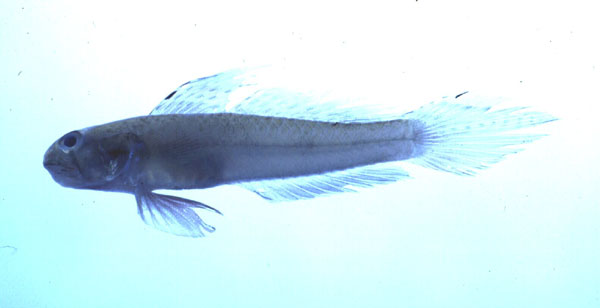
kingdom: Animalia
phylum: Chordata
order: Perciformes
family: Gobiidae
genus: Oligolepis
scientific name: Oligolepis acutipennis
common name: Sharptail goby
